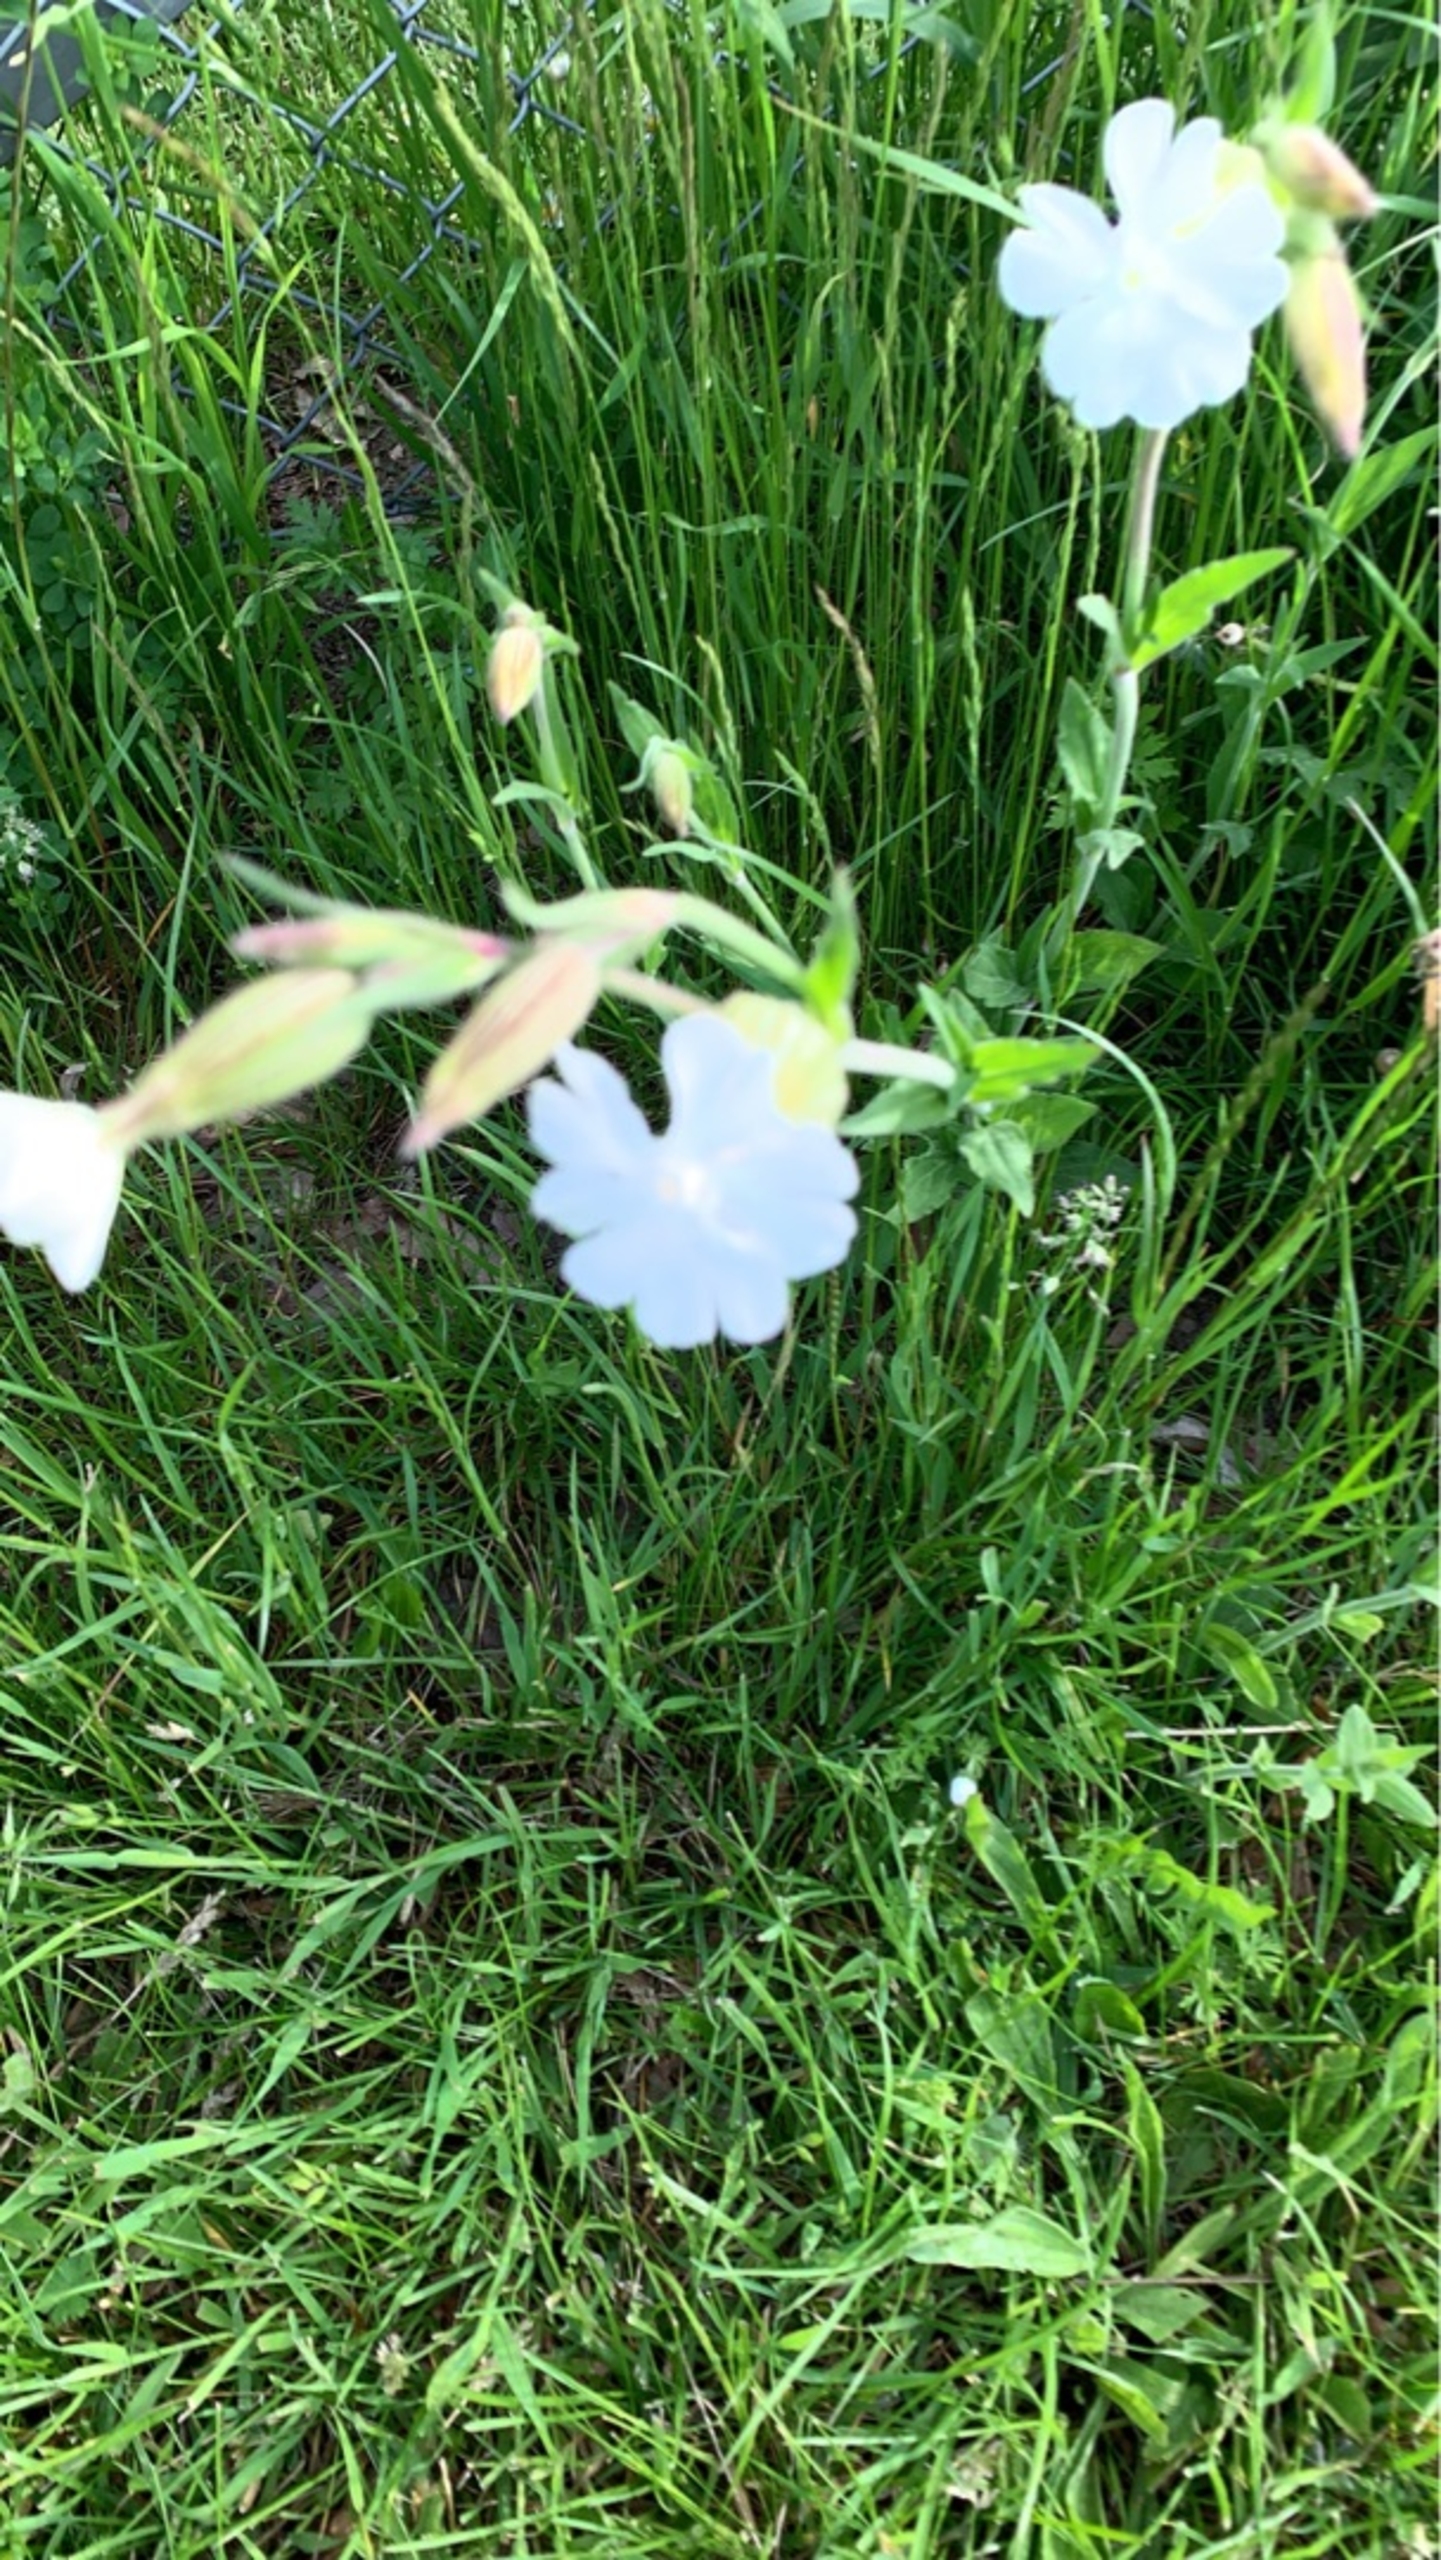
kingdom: Plantae
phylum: Tracheophyta
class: Magnoliopsida
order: Caryophyllales
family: Caryophyllaceae
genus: Silene
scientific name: Silene latifolia
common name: Aftenpragtstjerne
